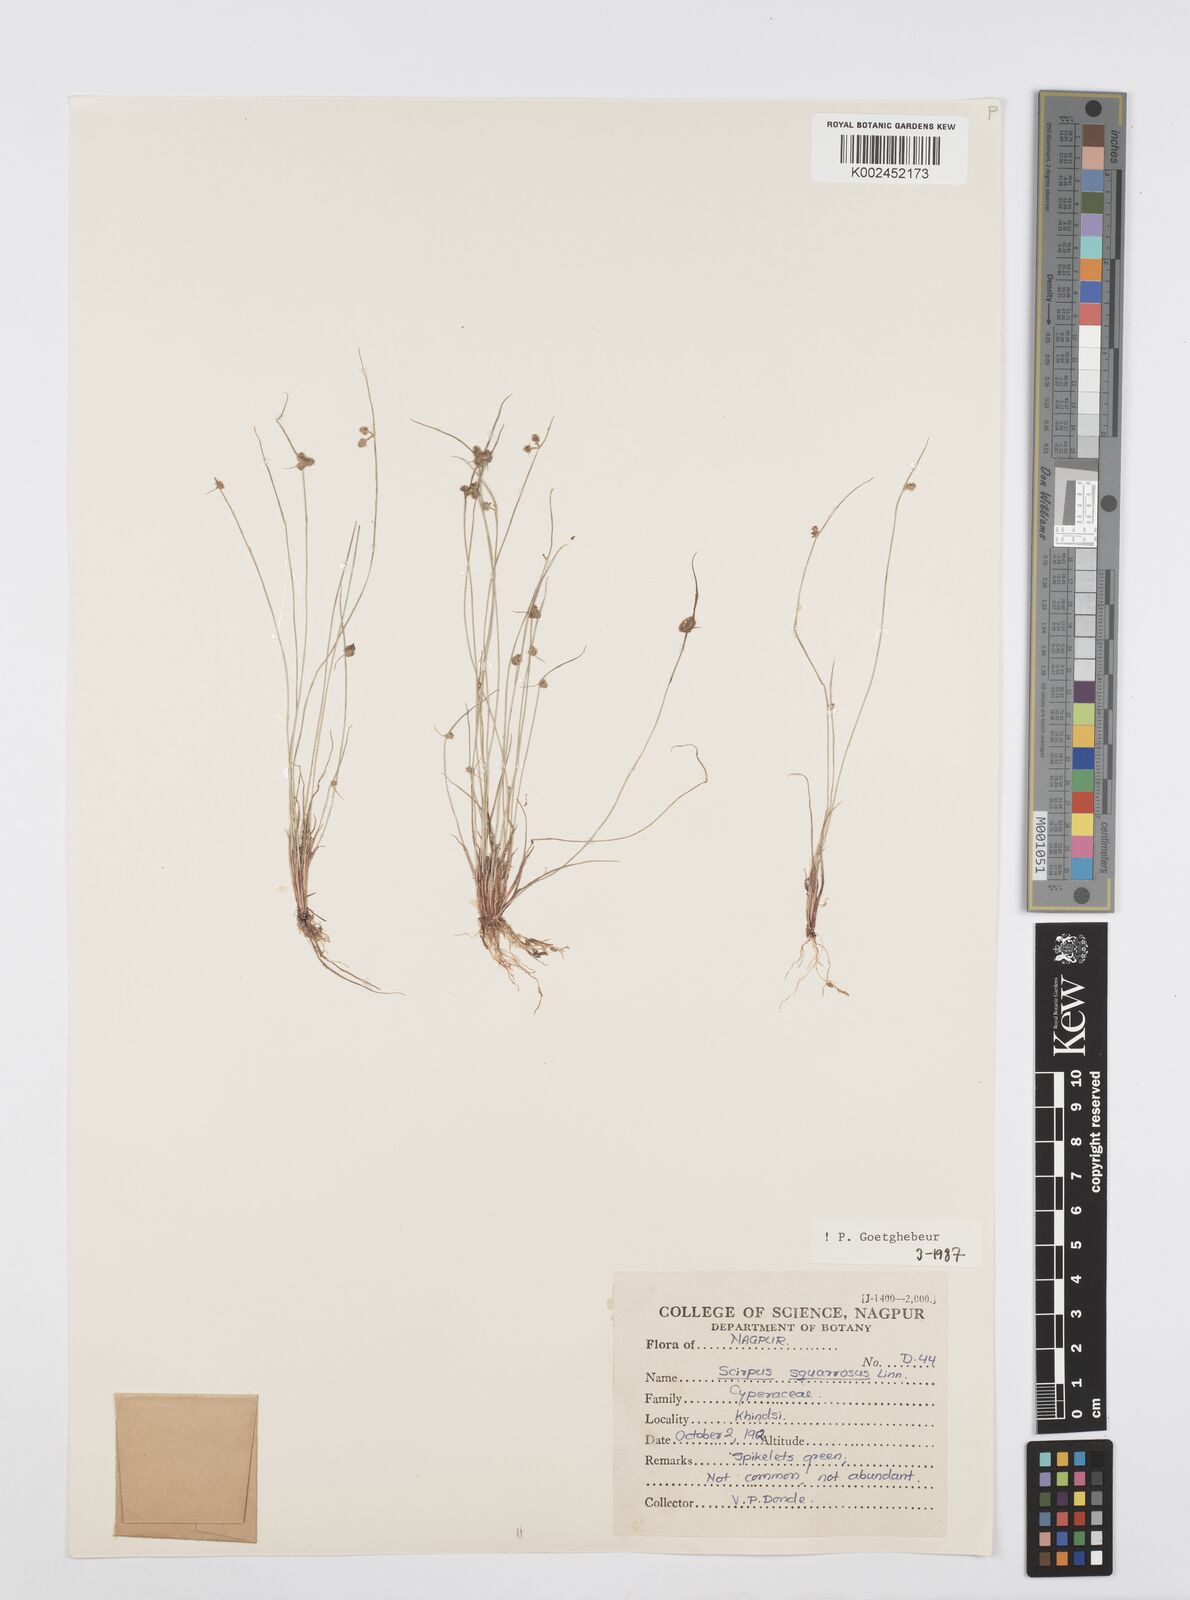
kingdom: Plantae
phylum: Tracheophyta
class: Liliopsida
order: Poales
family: Cyperaceae
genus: Cyperus
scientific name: Cyperus squarrosus
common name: Awned cyperus
